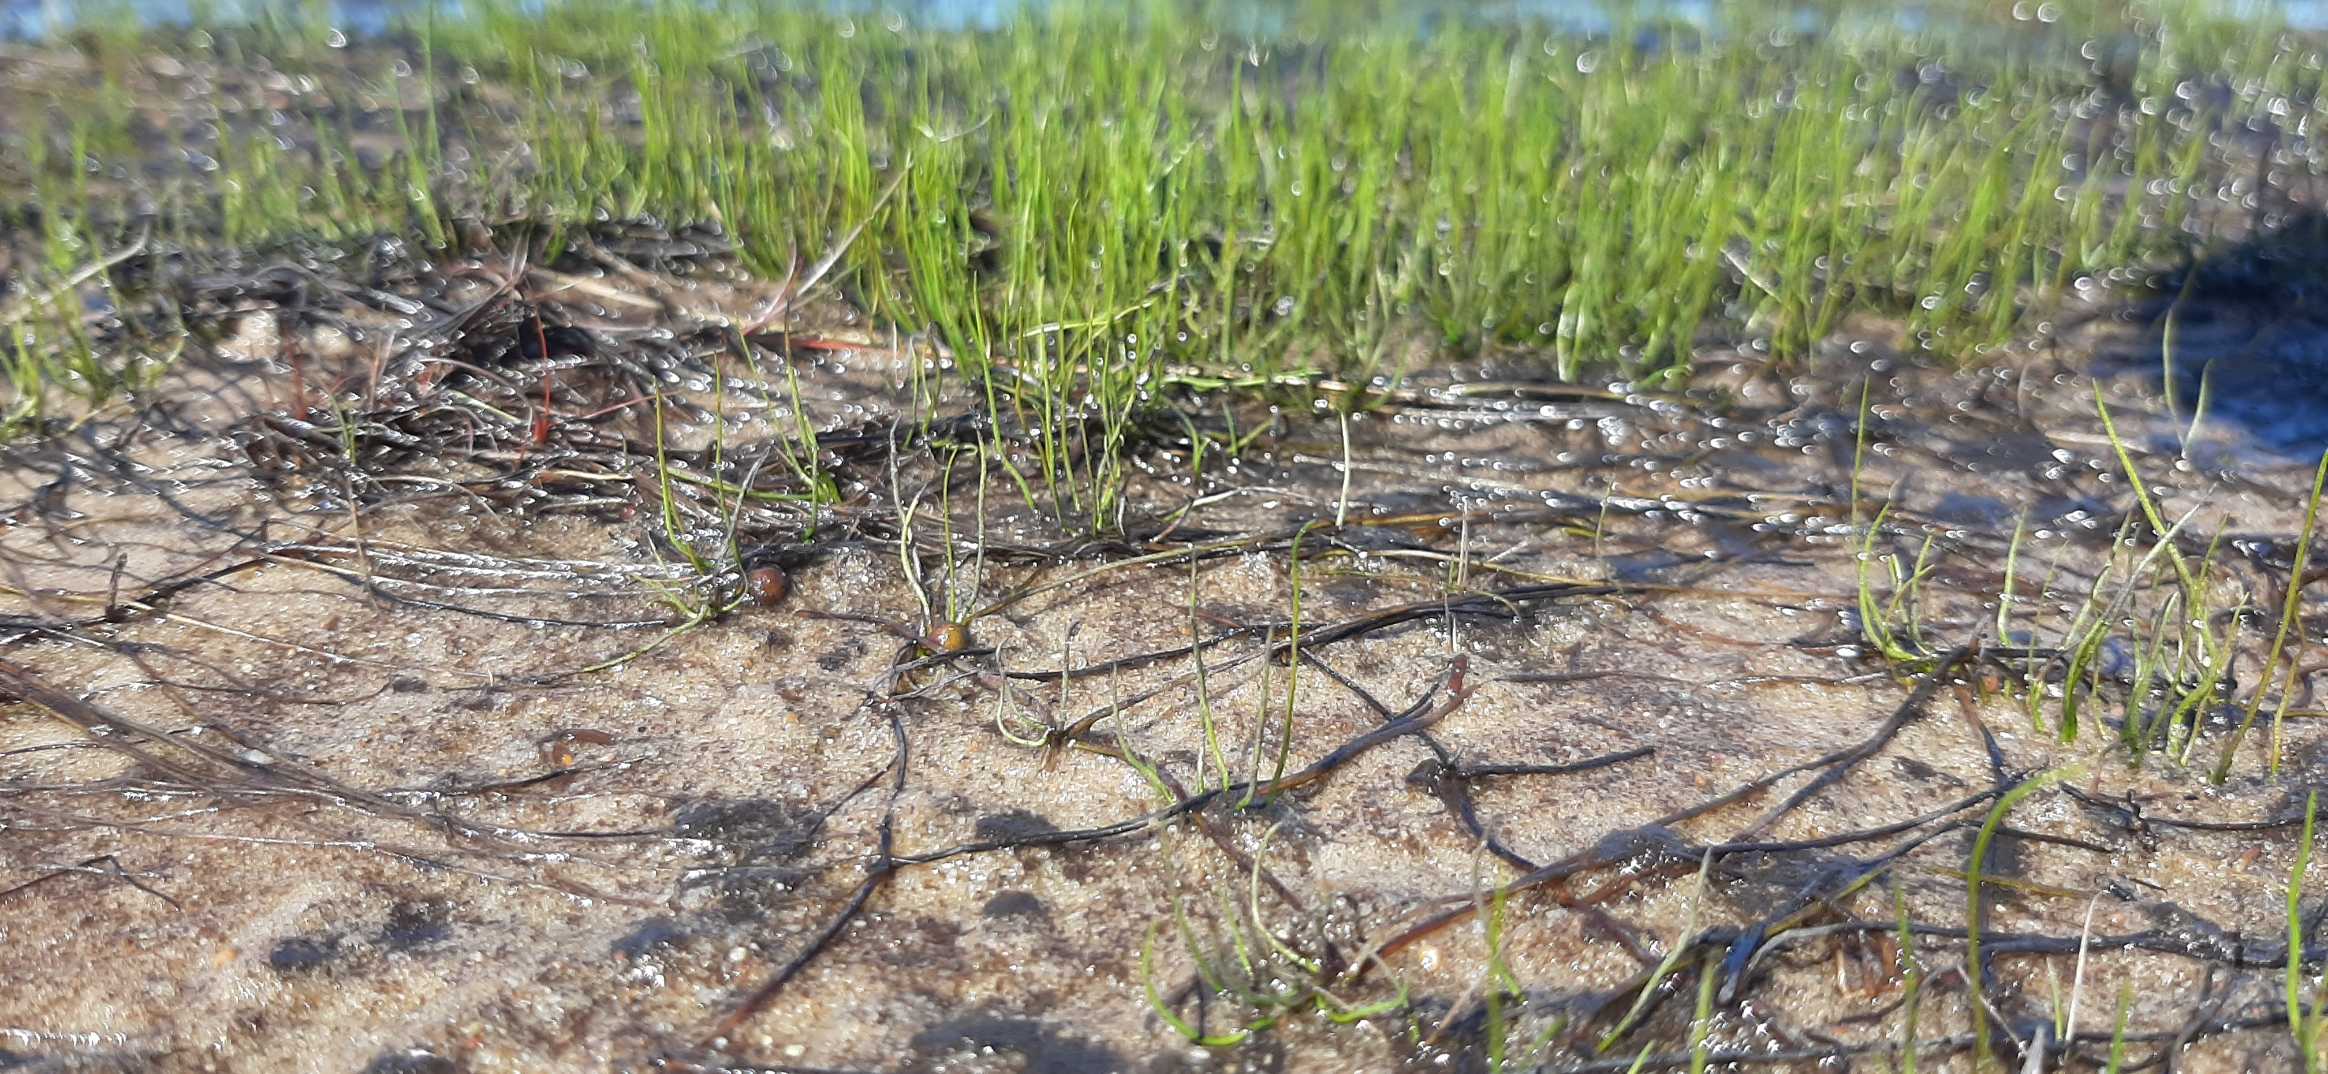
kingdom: Plantae
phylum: Tracheophyta
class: Polypodiopsida
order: Salviniales
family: Marsileaceae
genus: Pilularia
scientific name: Pilularia globulifera
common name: Pilledrager
